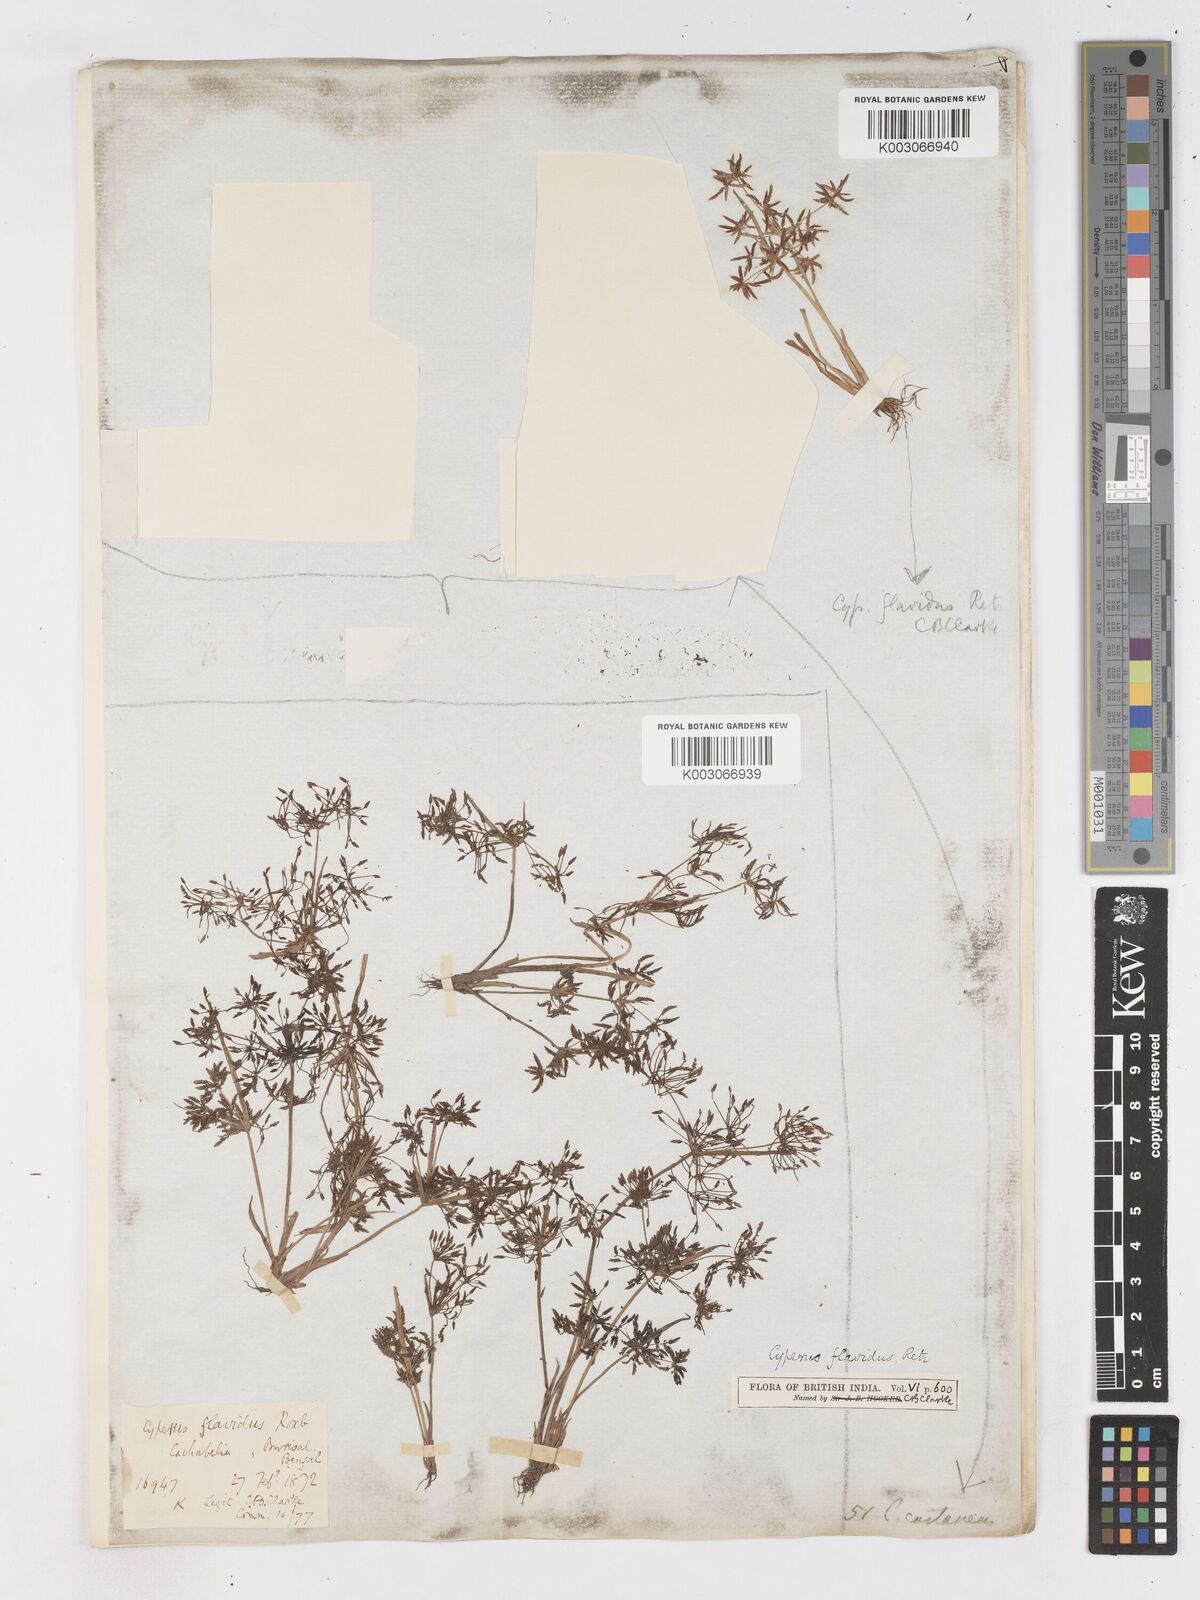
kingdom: Plantae
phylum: Tracheophyta
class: Liliopsida
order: Poales
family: Cyperaceae
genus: Cyperus
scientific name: Cyperus tenuispica
